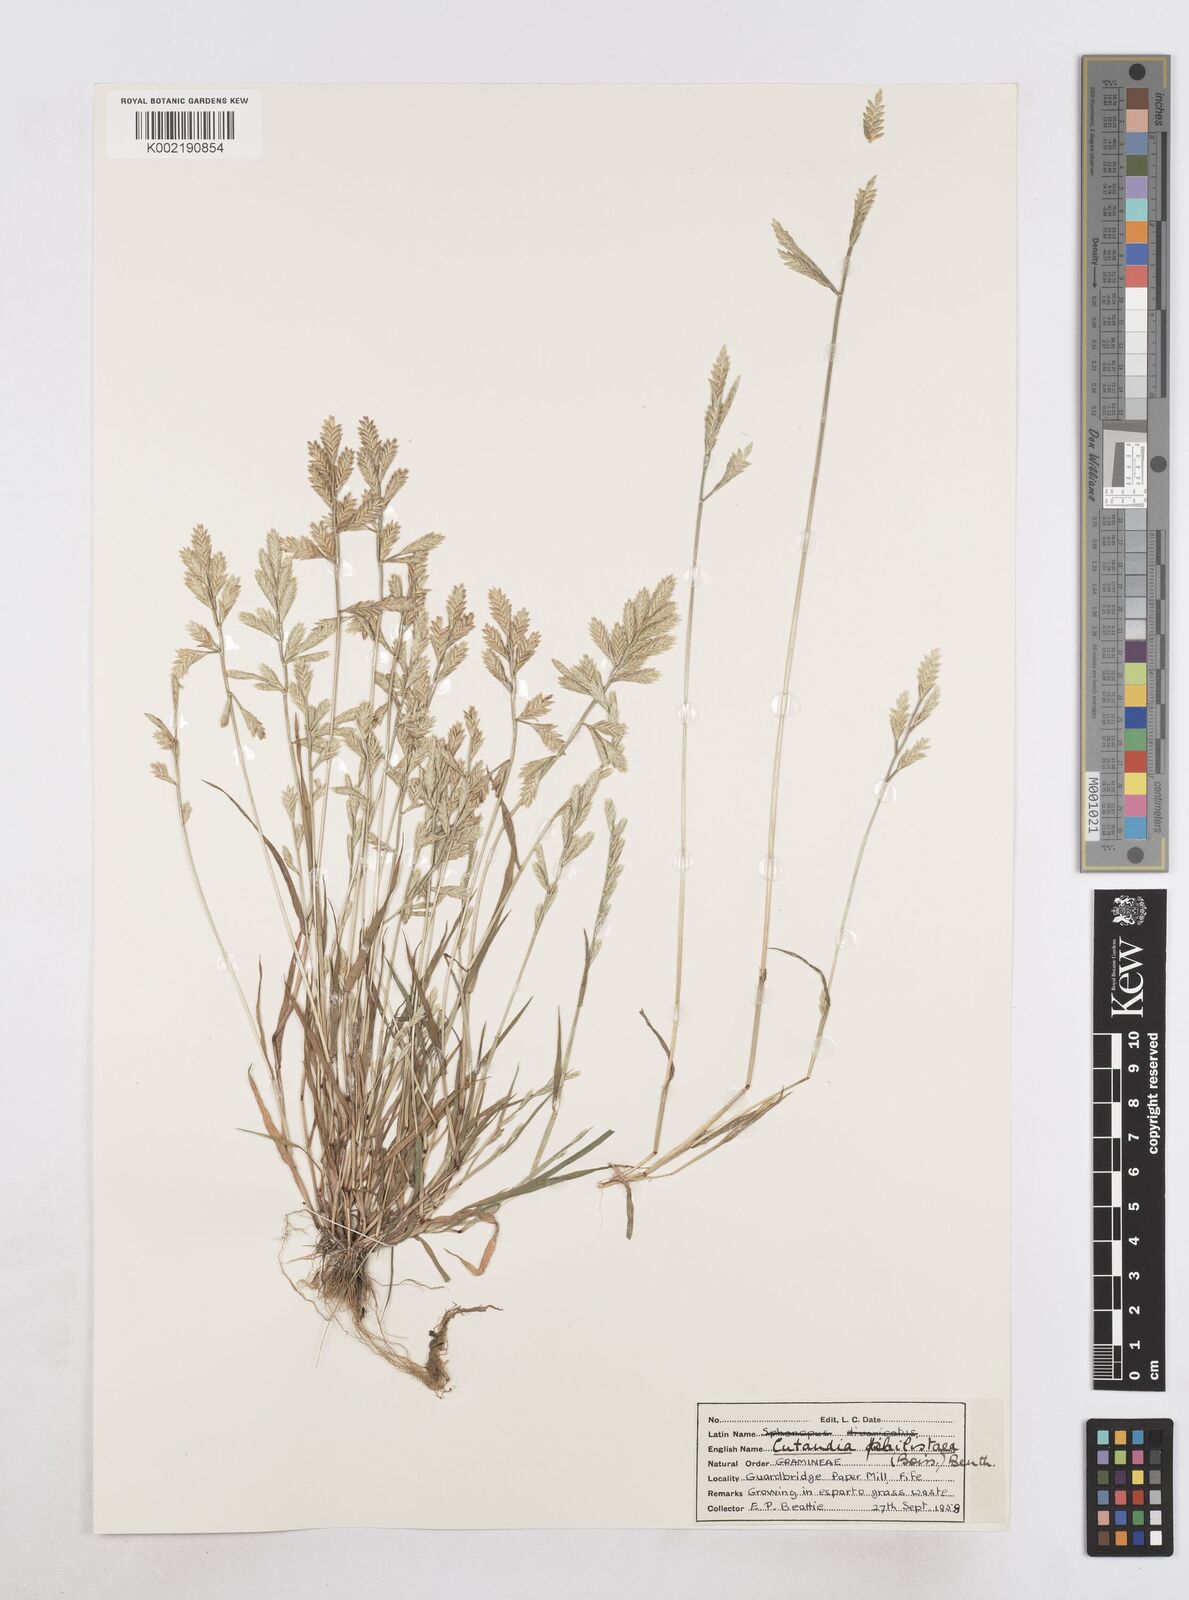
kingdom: Plantae
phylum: Tracheophyta
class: Liliopsida
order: Poales
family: Poaceae
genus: Desmazeria
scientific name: Desmazeria philistaea
